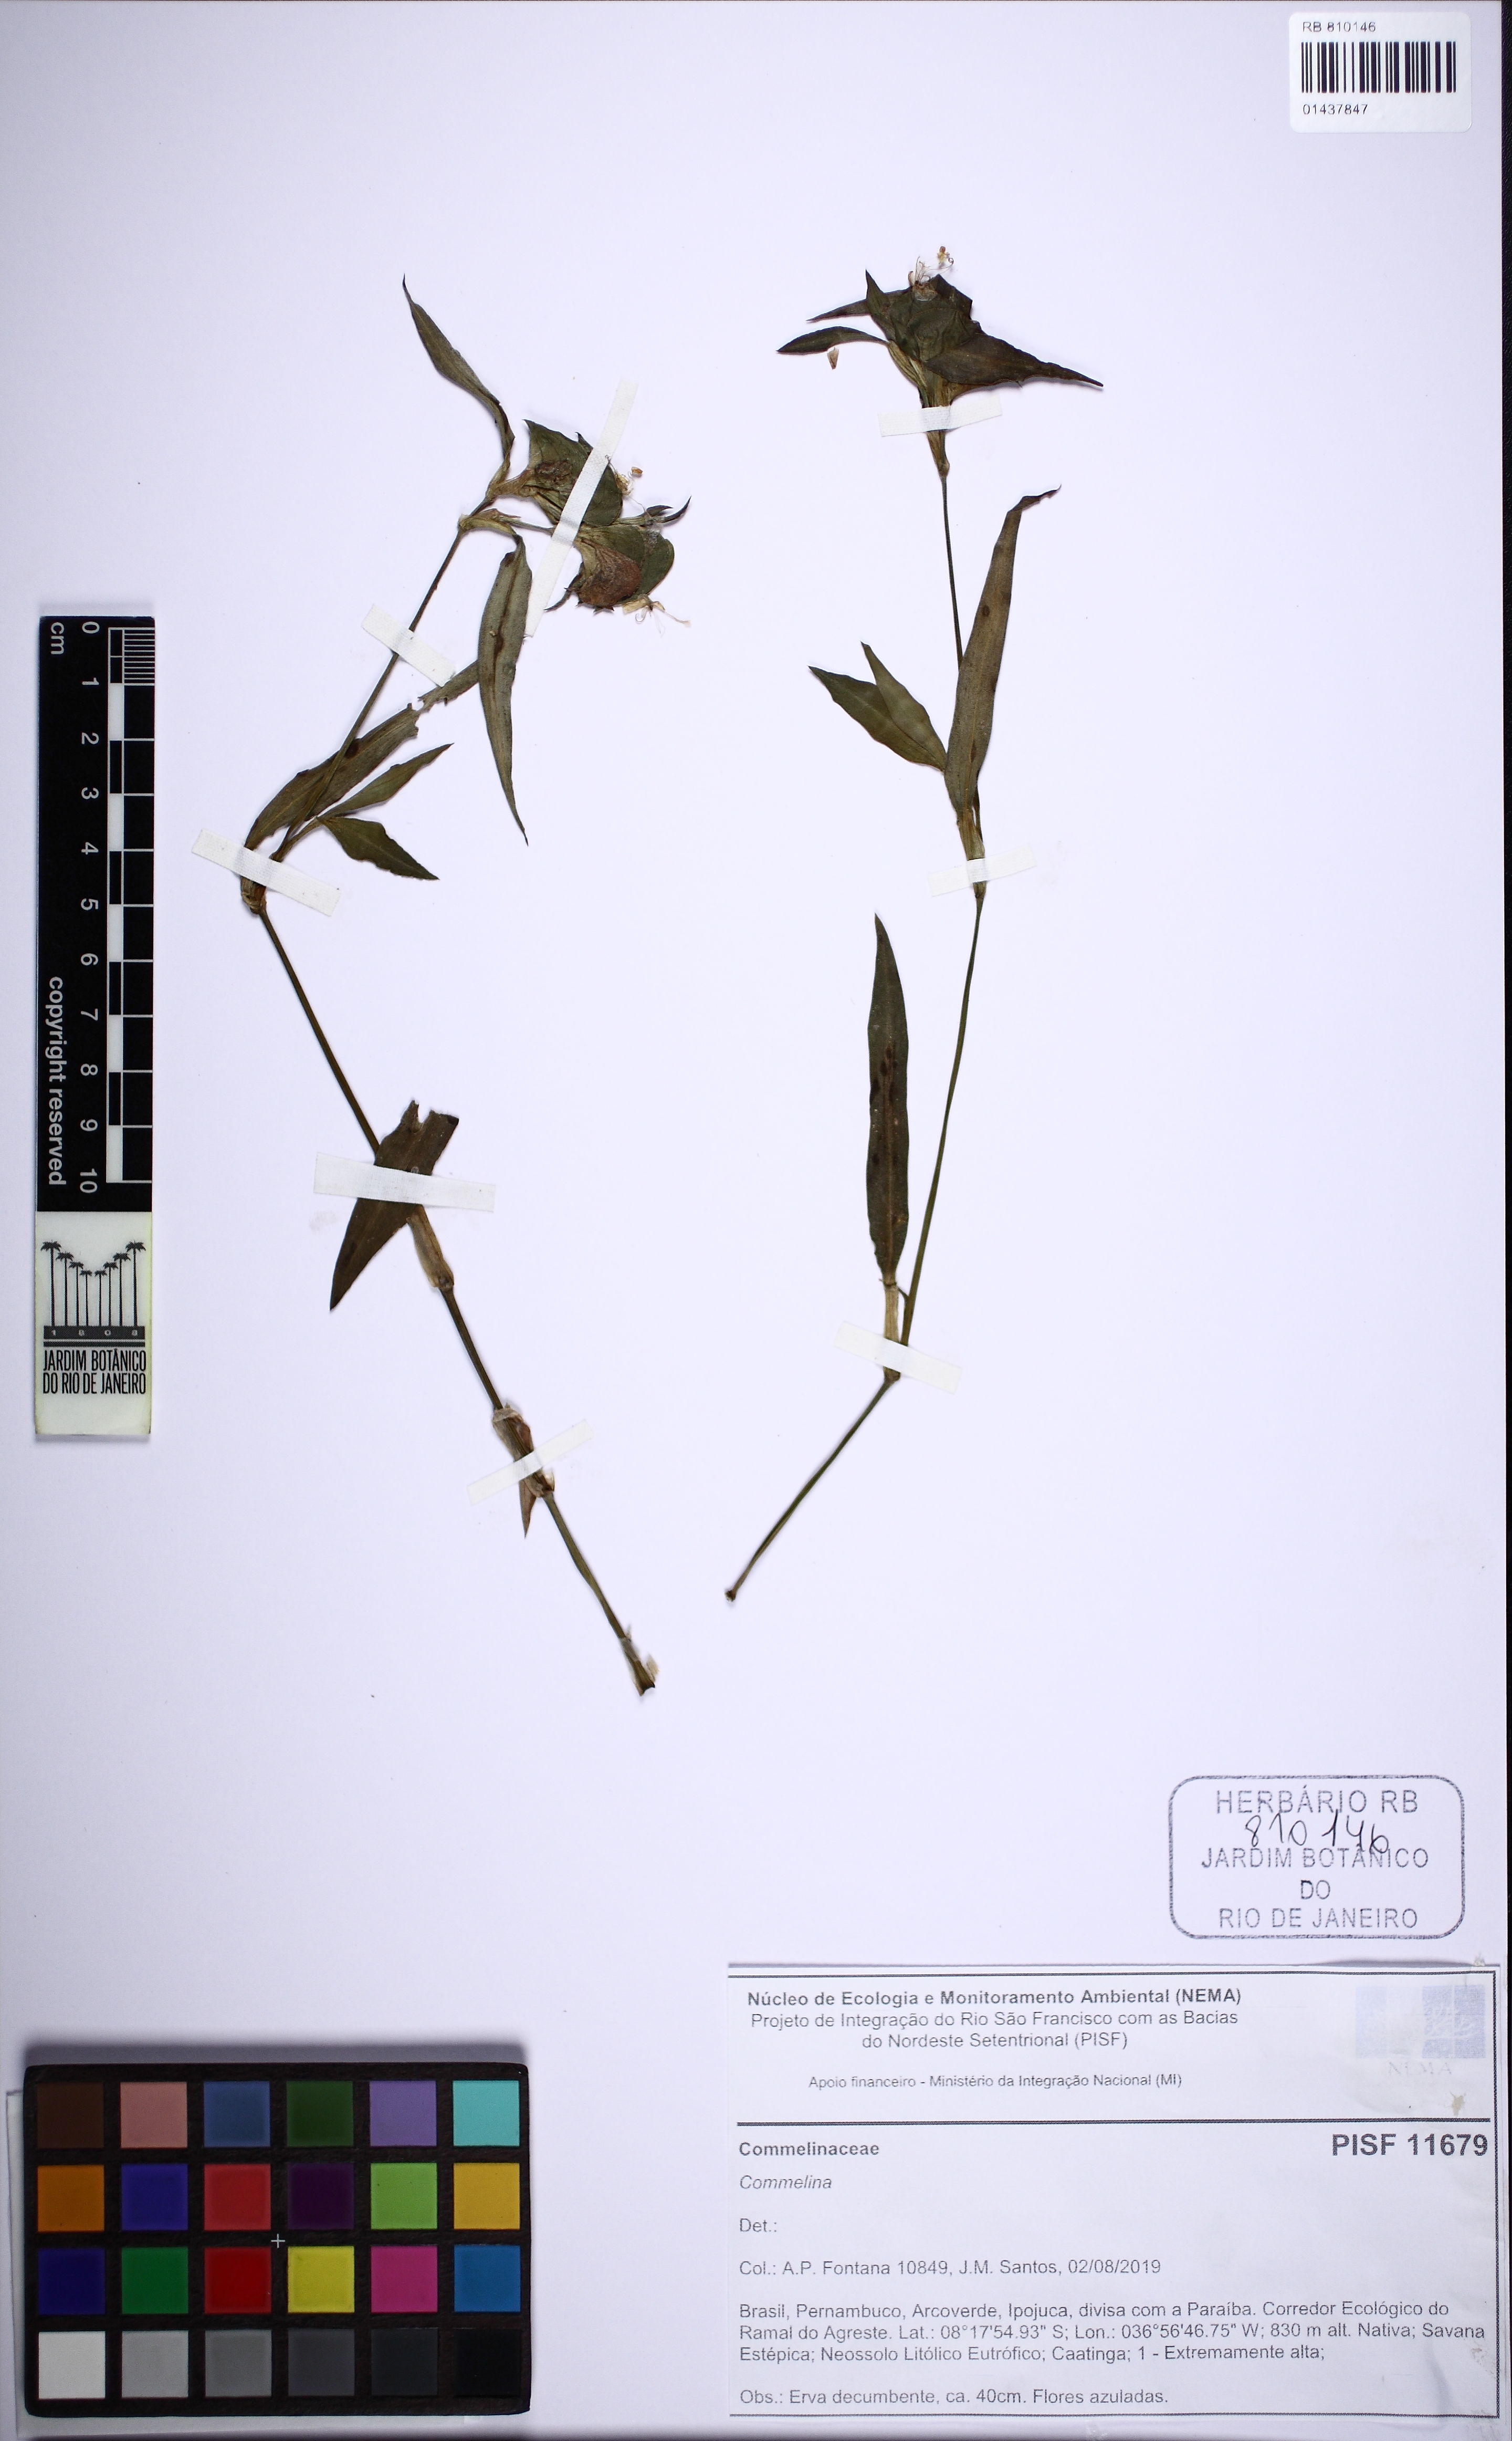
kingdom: Plantae
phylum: Tracheophyta
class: Liliopsida
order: Commelinales
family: Commelinaceae
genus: Commelina
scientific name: Commelina erecta
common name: Blousel blommetjie
